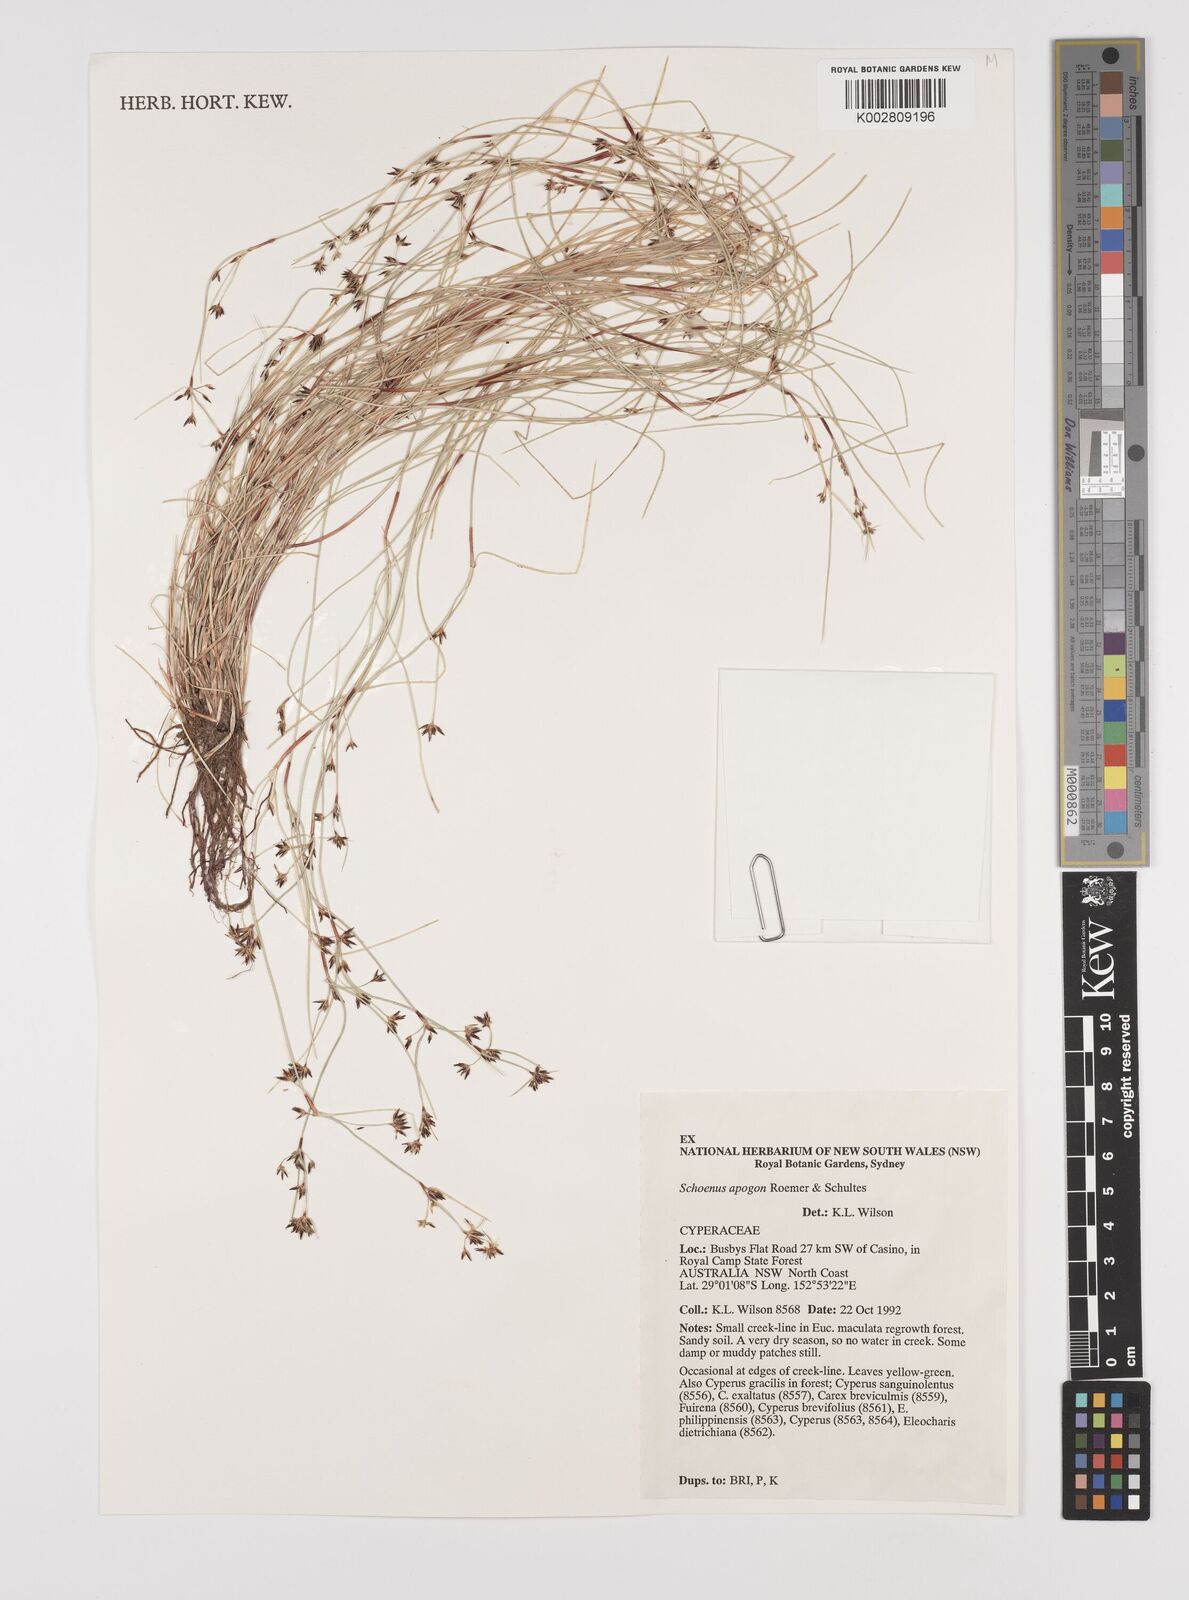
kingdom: Plantae
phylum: Tracheophyta
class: Liliopsida
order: Poales
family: Cyperaceae
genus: Schoenus
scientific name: Schoenus apogon
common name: Smooth bogrush
